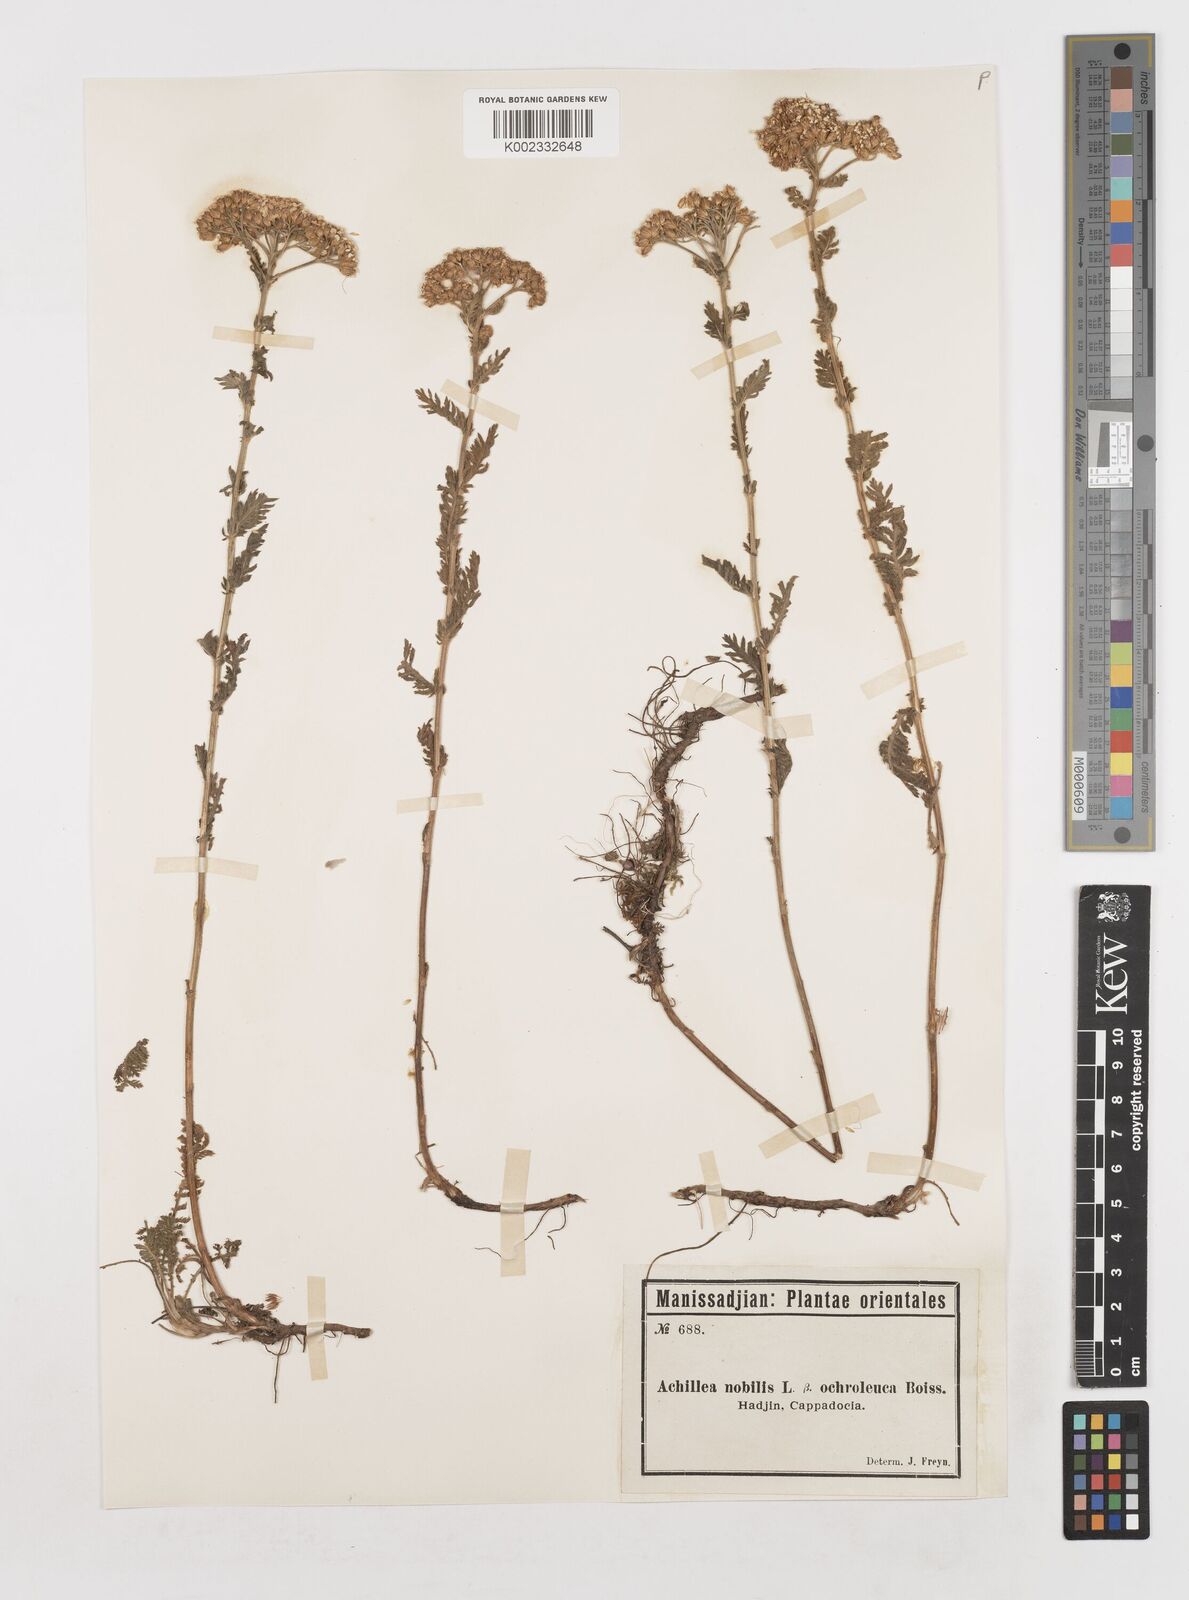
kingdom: Plantae
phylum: Tracheophyta
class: Magnoliopsida
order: Asterales
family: Asteraceae
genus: Achillea
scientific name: Achillea nobilis
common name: Noble yarrow
